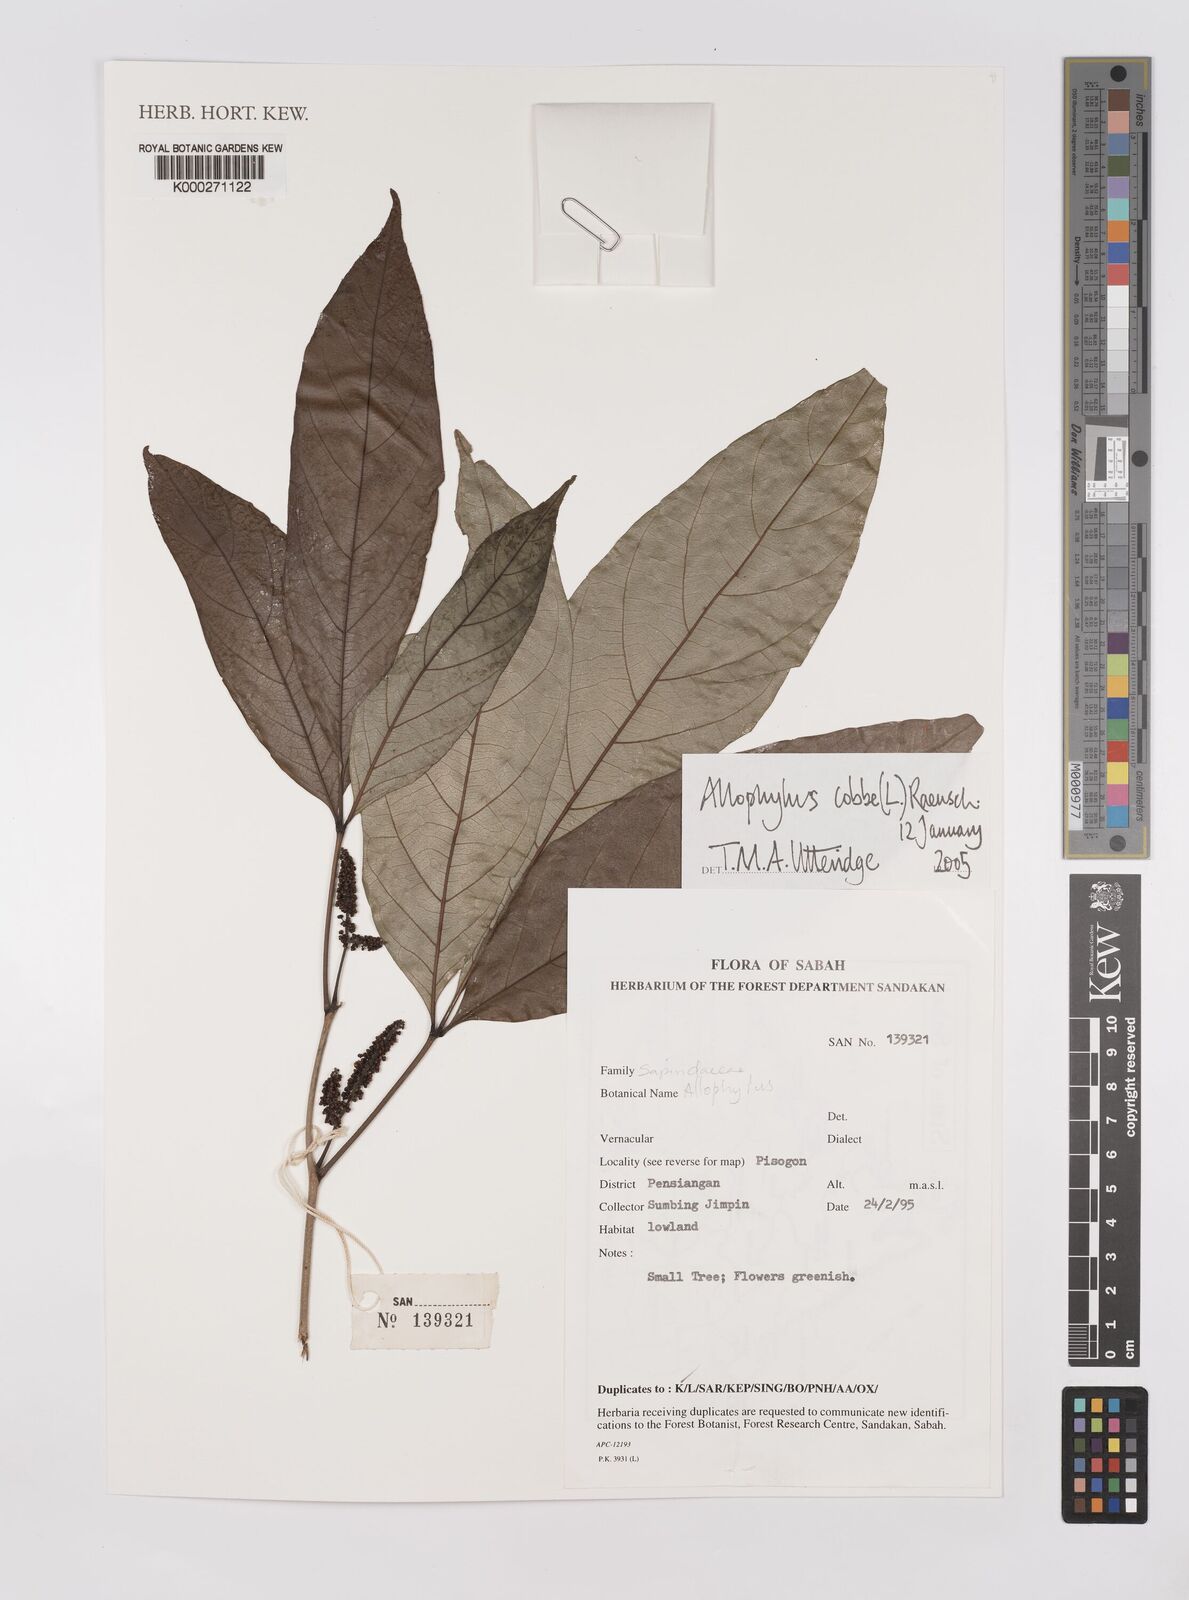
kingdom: Plantae
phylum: Tracheophyta
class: Magnoliopsida
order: Sapindales
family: Sapindaceae
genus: Allophylus
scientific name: Allophylus
